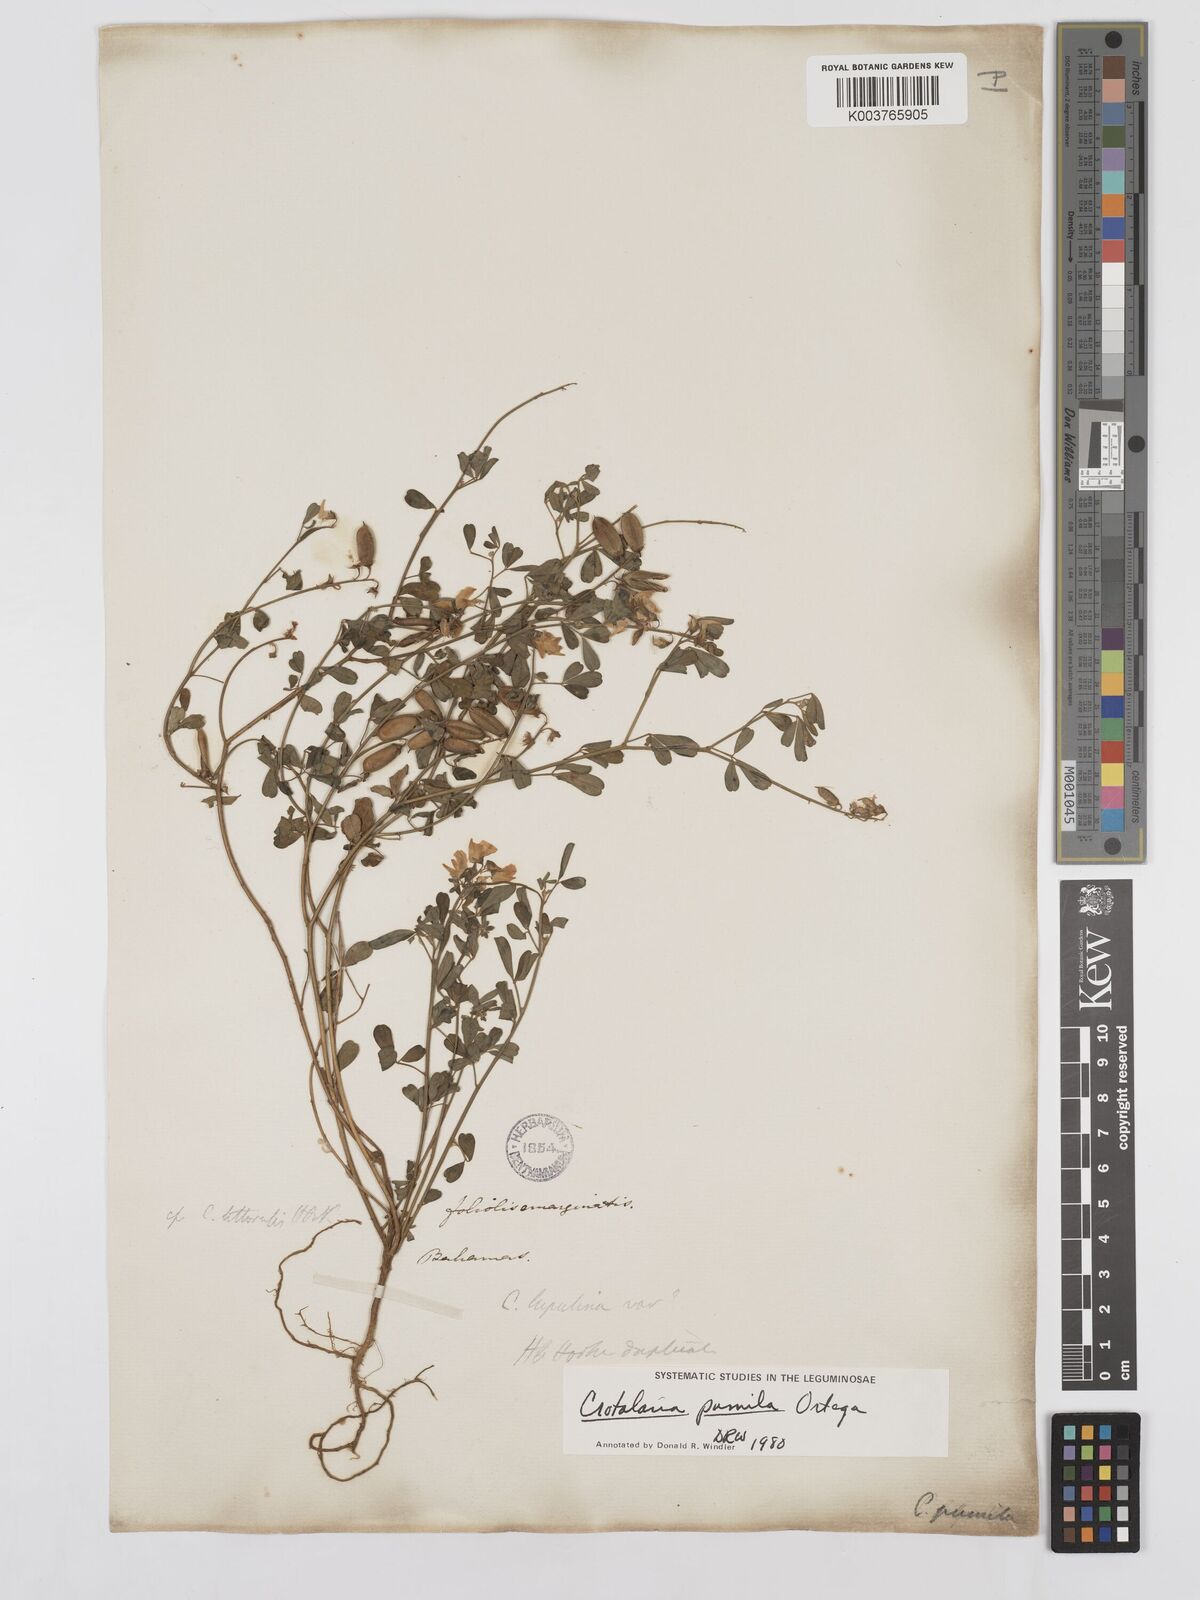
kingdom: Plantae
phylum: Tracheophyta
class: Magnoliopsida
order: Fabales
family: Fabaceae
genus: Crotalaria
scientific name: Crotalaria pumila
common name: Low rattlebox
